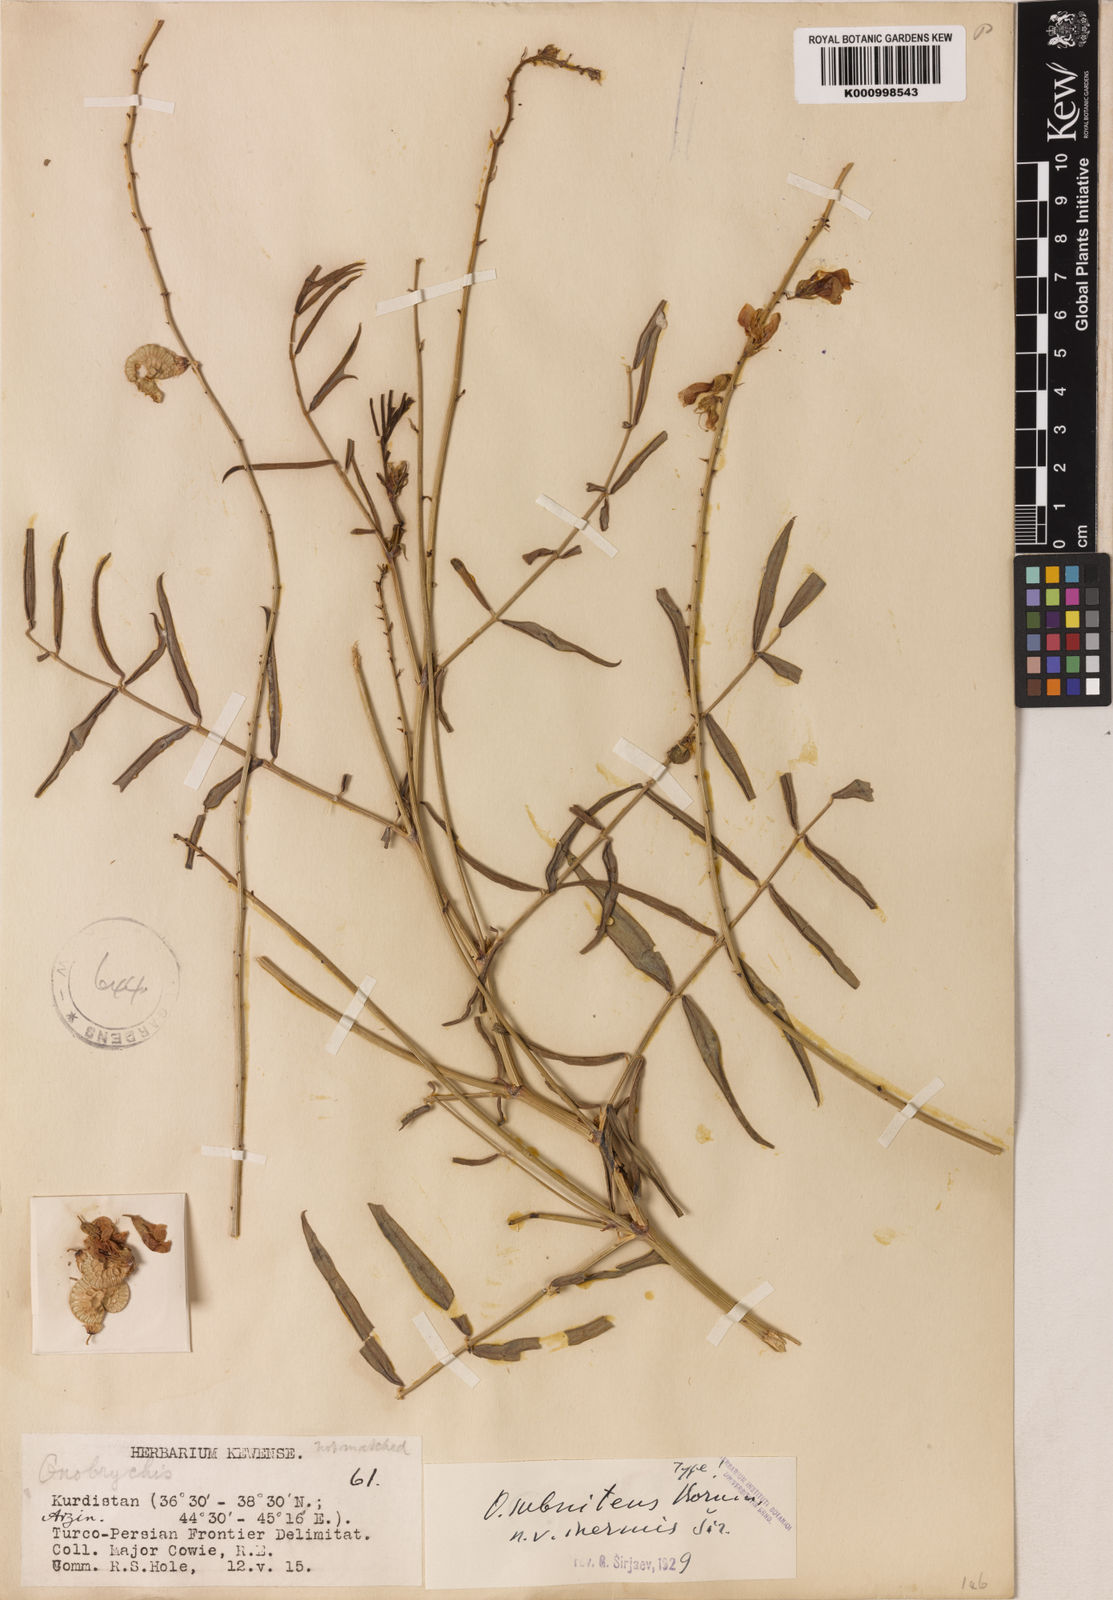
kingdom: Plantae
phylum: Tracheophyta
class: Magnoliopsida
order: Fabales
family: Fabaceae
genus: Onobrychis
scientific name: Onobrychis subnitens
